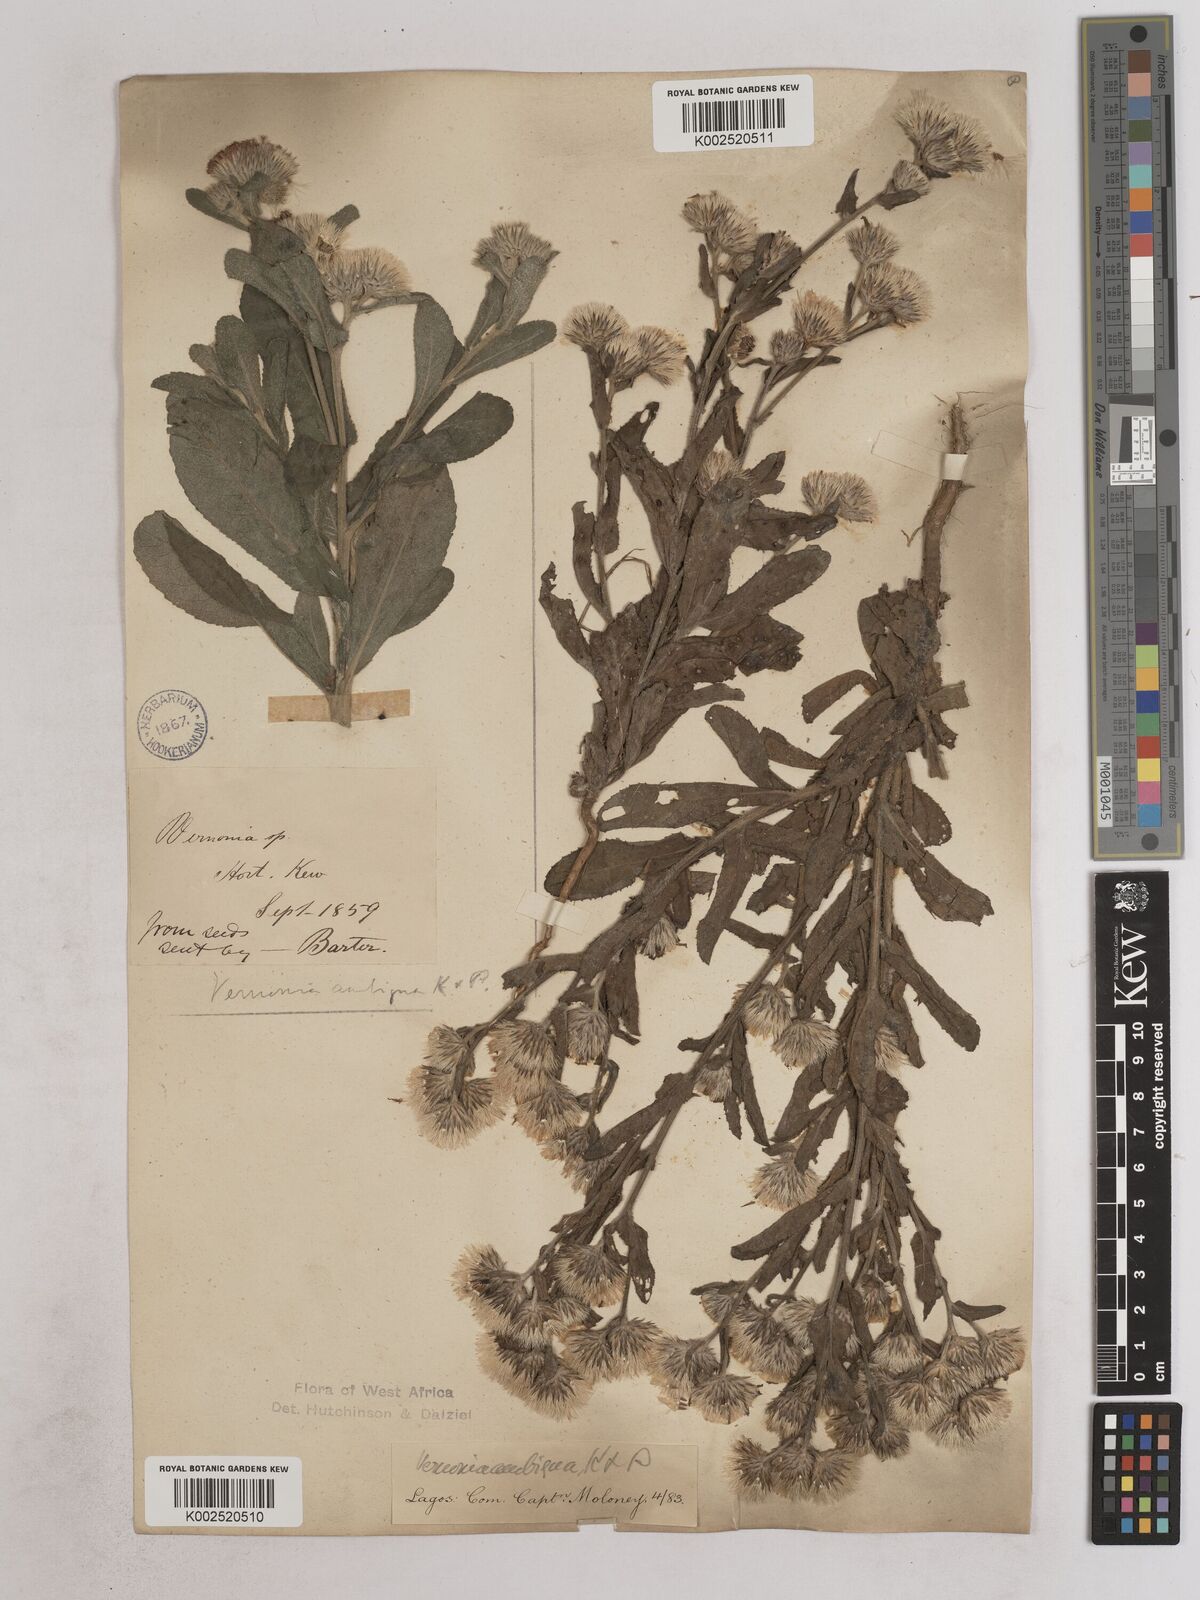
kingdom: Plantae
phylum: Tracheophyta
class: Magnoliopsida
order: Asterales
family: Asteraceae
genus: Vernoniastrum
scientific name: Vernoniastrum ambiguum
